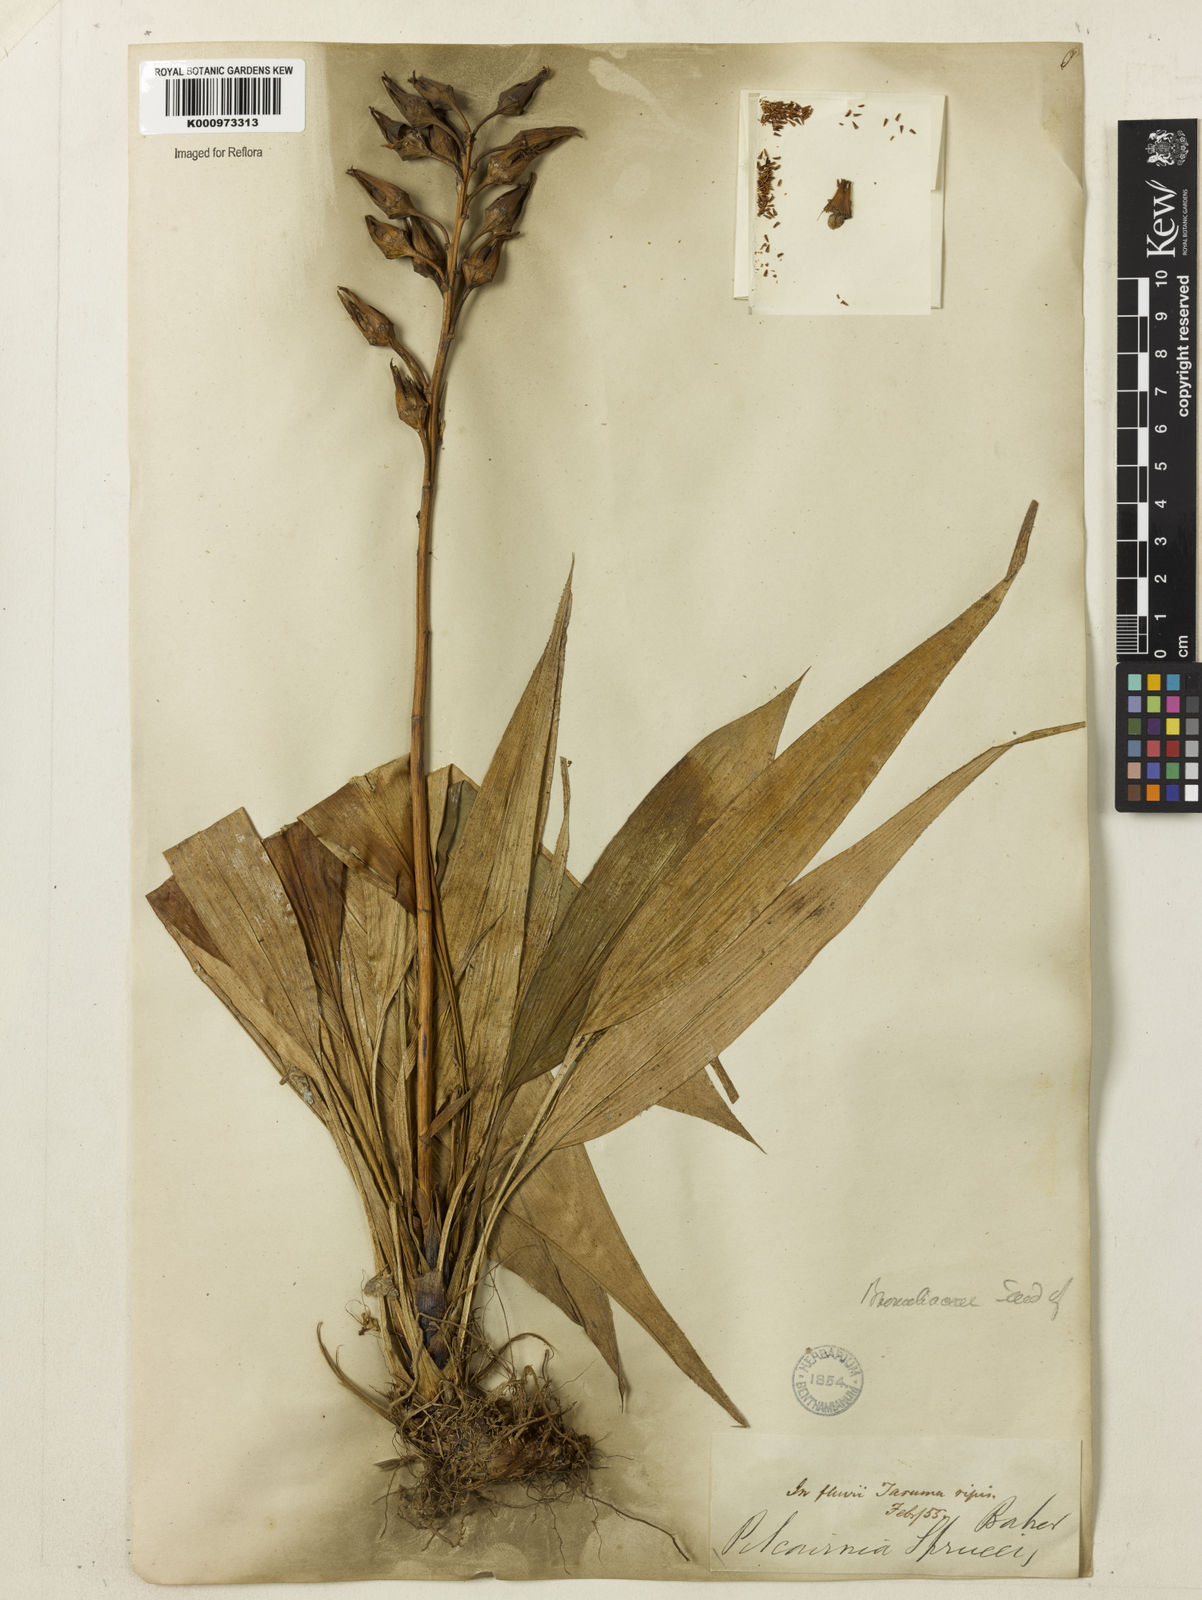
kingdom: Plantae
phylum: Tracheophyta
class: Liliopsida
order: Poales
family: Bromeliaceae
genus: Pitcairnia
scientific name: Pitcairnia sprucei
